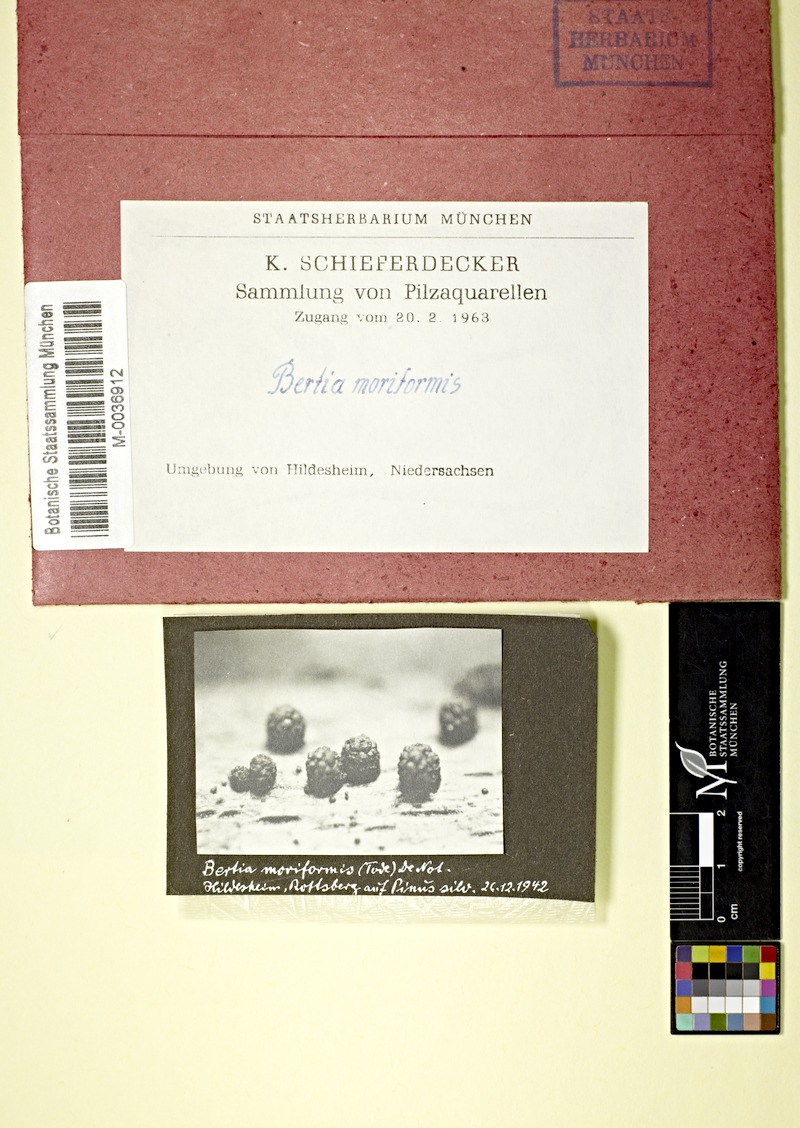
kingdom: Plantae
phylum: Tracheophyta
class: Pinopsida
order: Pinales
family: Pinaceae
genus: Pinus
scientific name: Pinus sylvestris
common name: Scots pine
